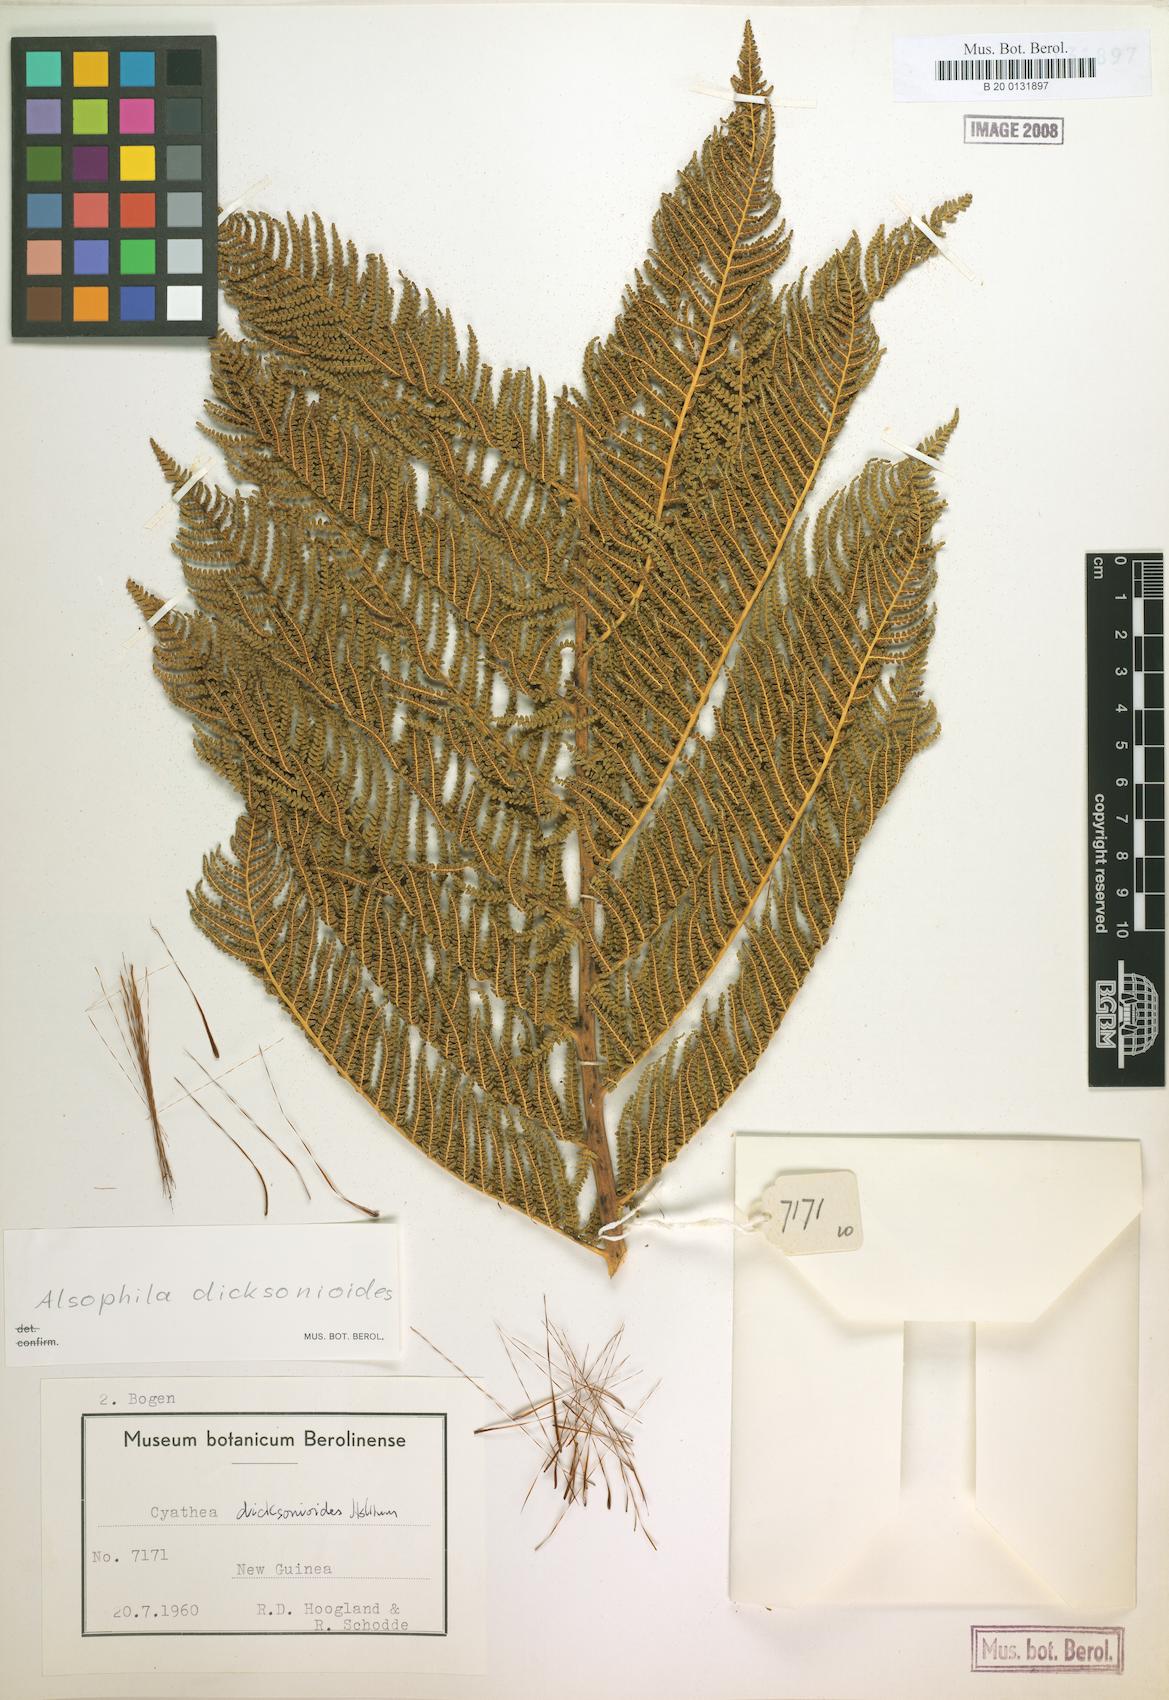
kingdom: Plantae
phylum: Tracheophyta
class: Polypodiopsida
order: Cyatheales
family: Cyatheaceae
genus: Alsophila
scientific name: Alsophila dicksonioides
